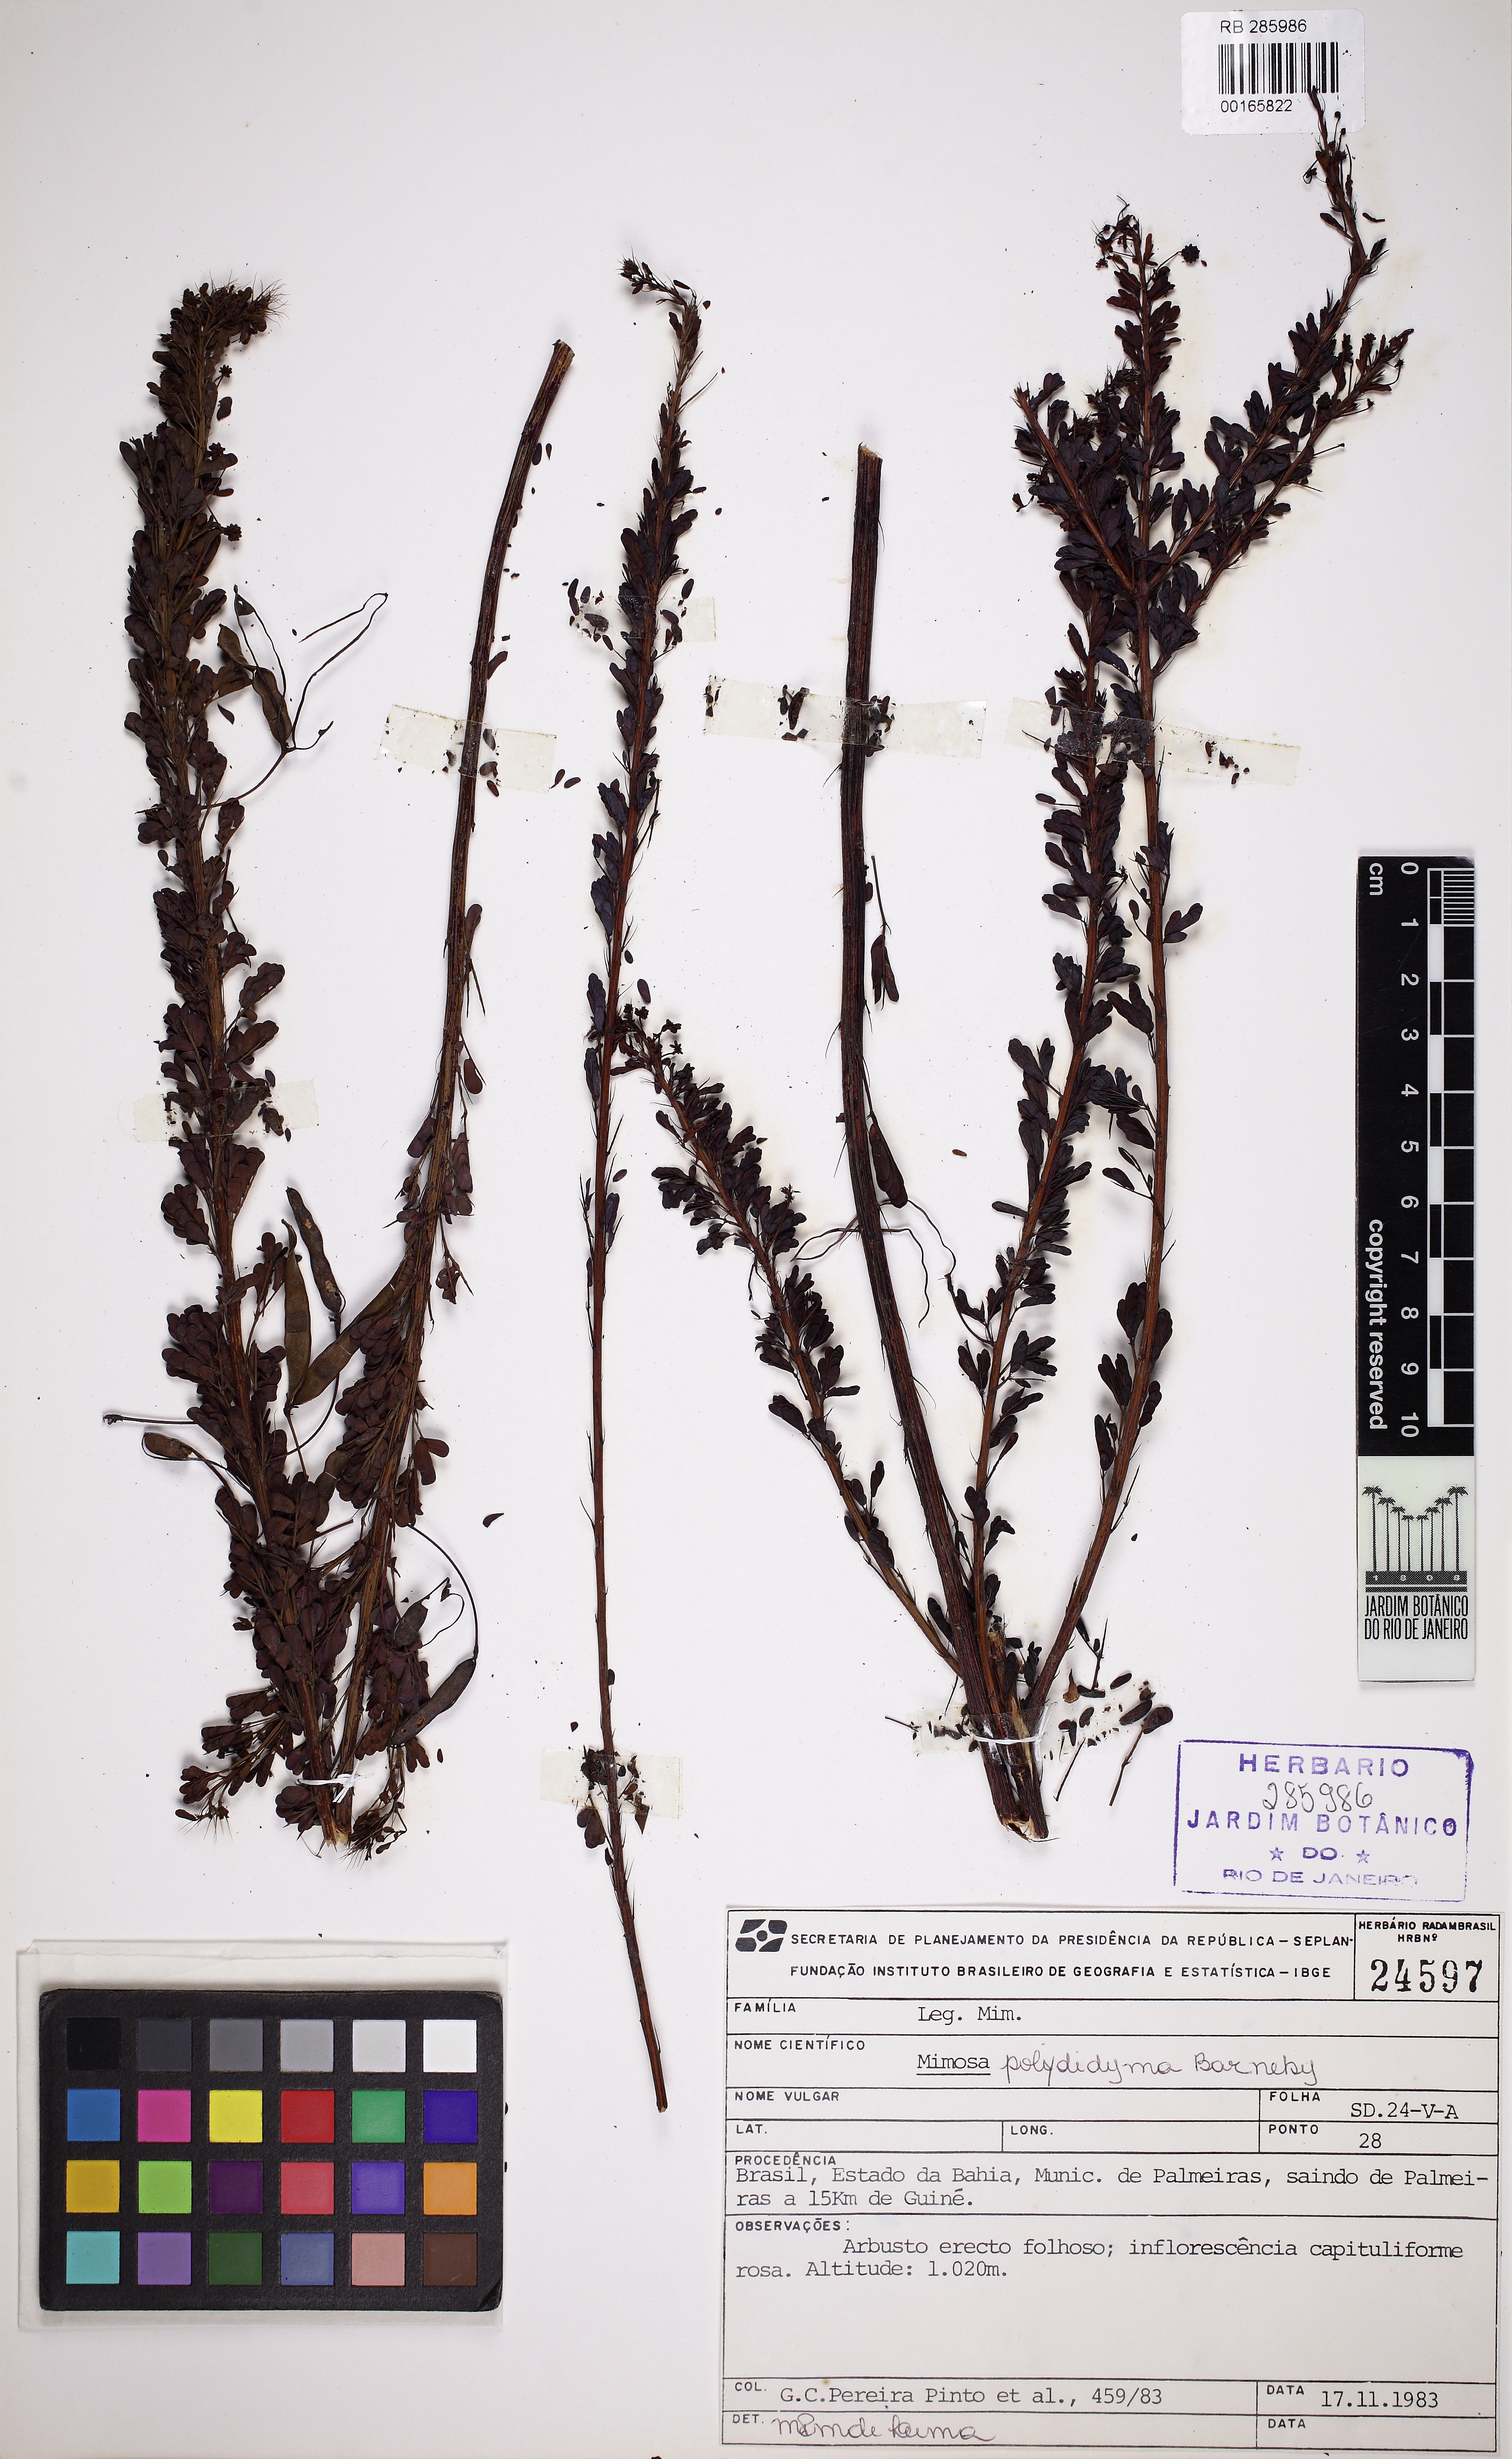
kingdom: Plantae
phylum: Tracheophyta
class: Magnoliopsida
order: Fabales
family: Fabaceae
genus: Mimosa
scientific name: Mimosa polydidyma
